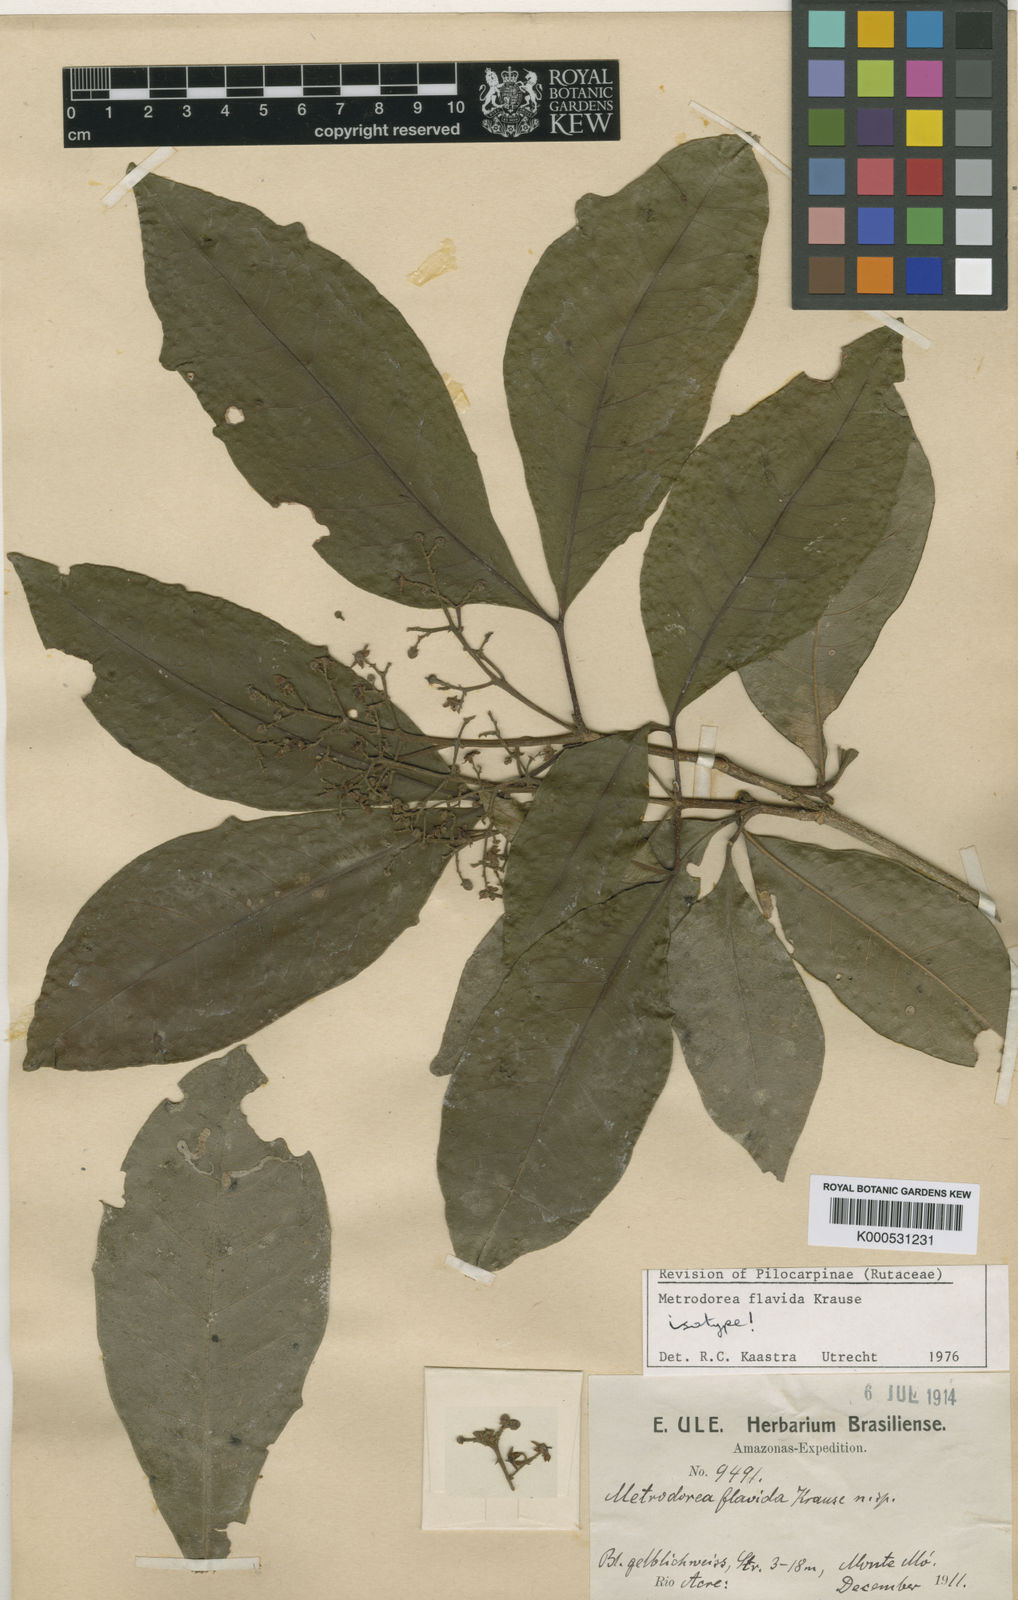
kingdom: Plantae
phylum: Tracheophyta
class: Magnoliopsida
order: Sapindales
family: Rutaceae
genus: Metrodorea
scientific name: Metrodorea flavida
